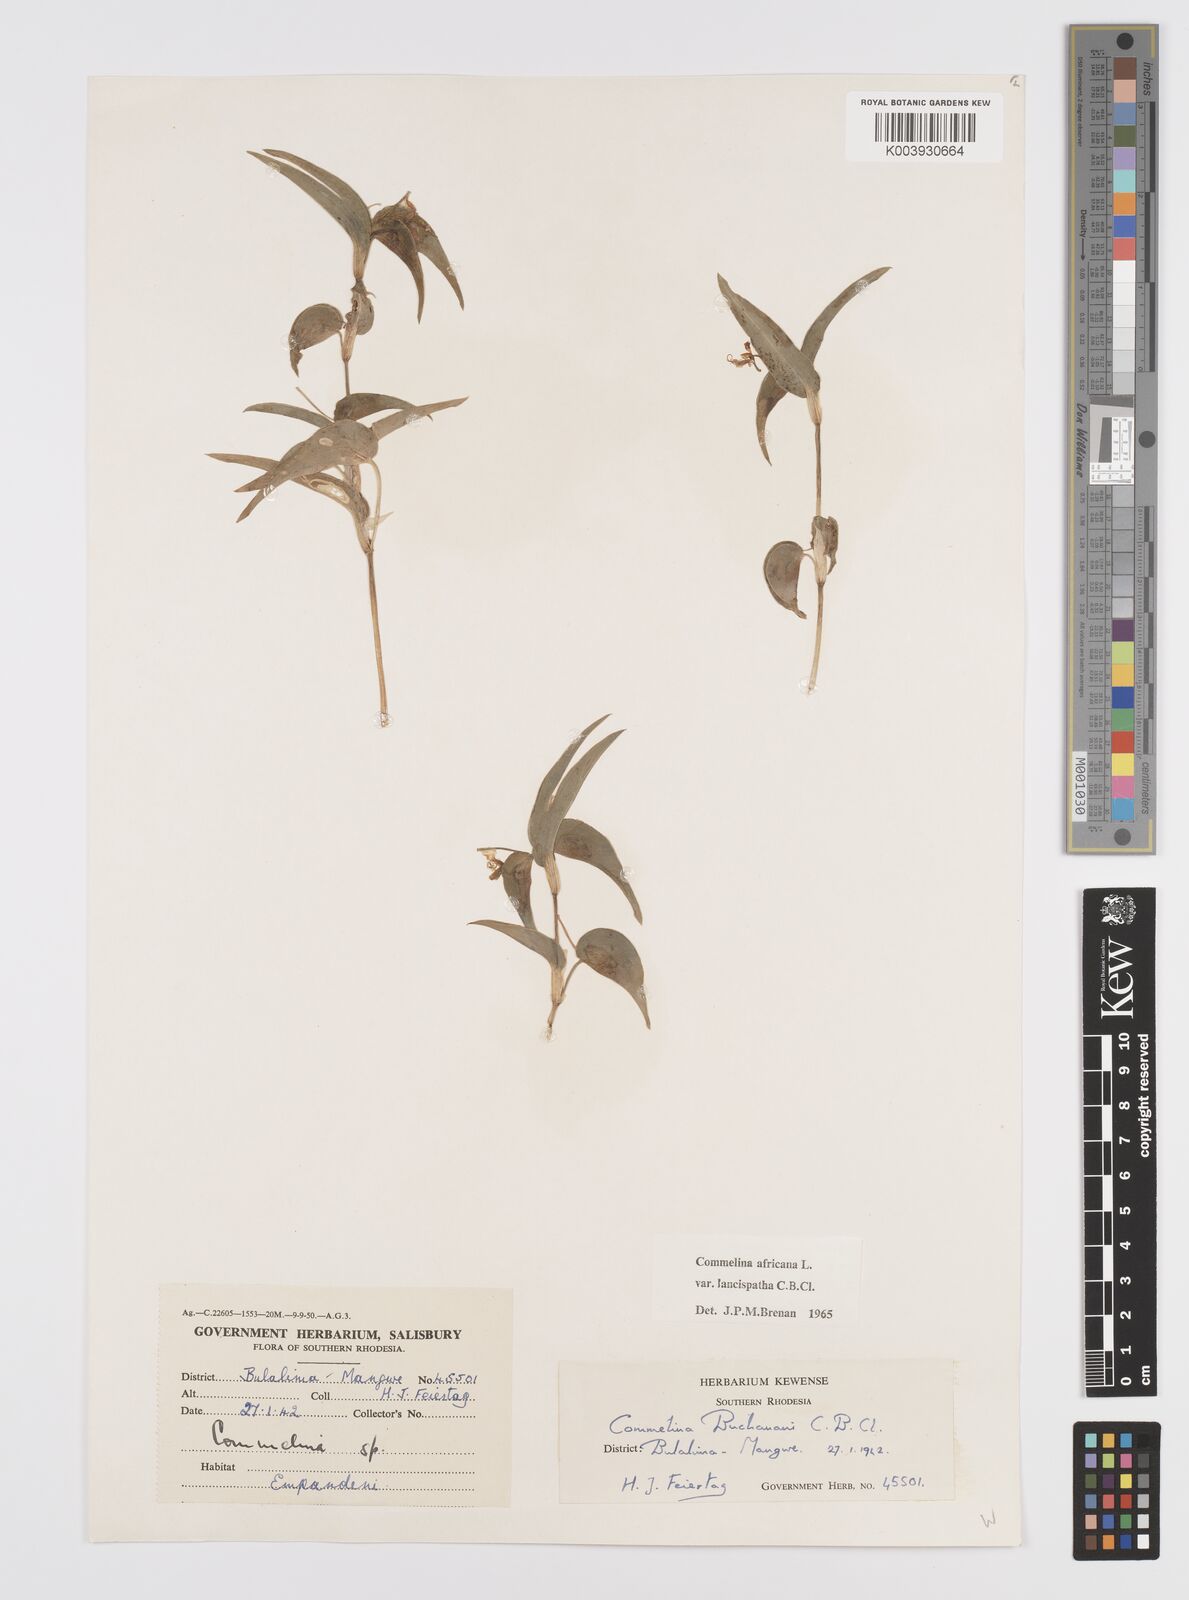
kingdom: Plantae
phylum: Tracheophyta
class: Liliopsida
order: Commelinales
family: Commelinaceae
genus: Commelina
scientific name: Commelina africana
